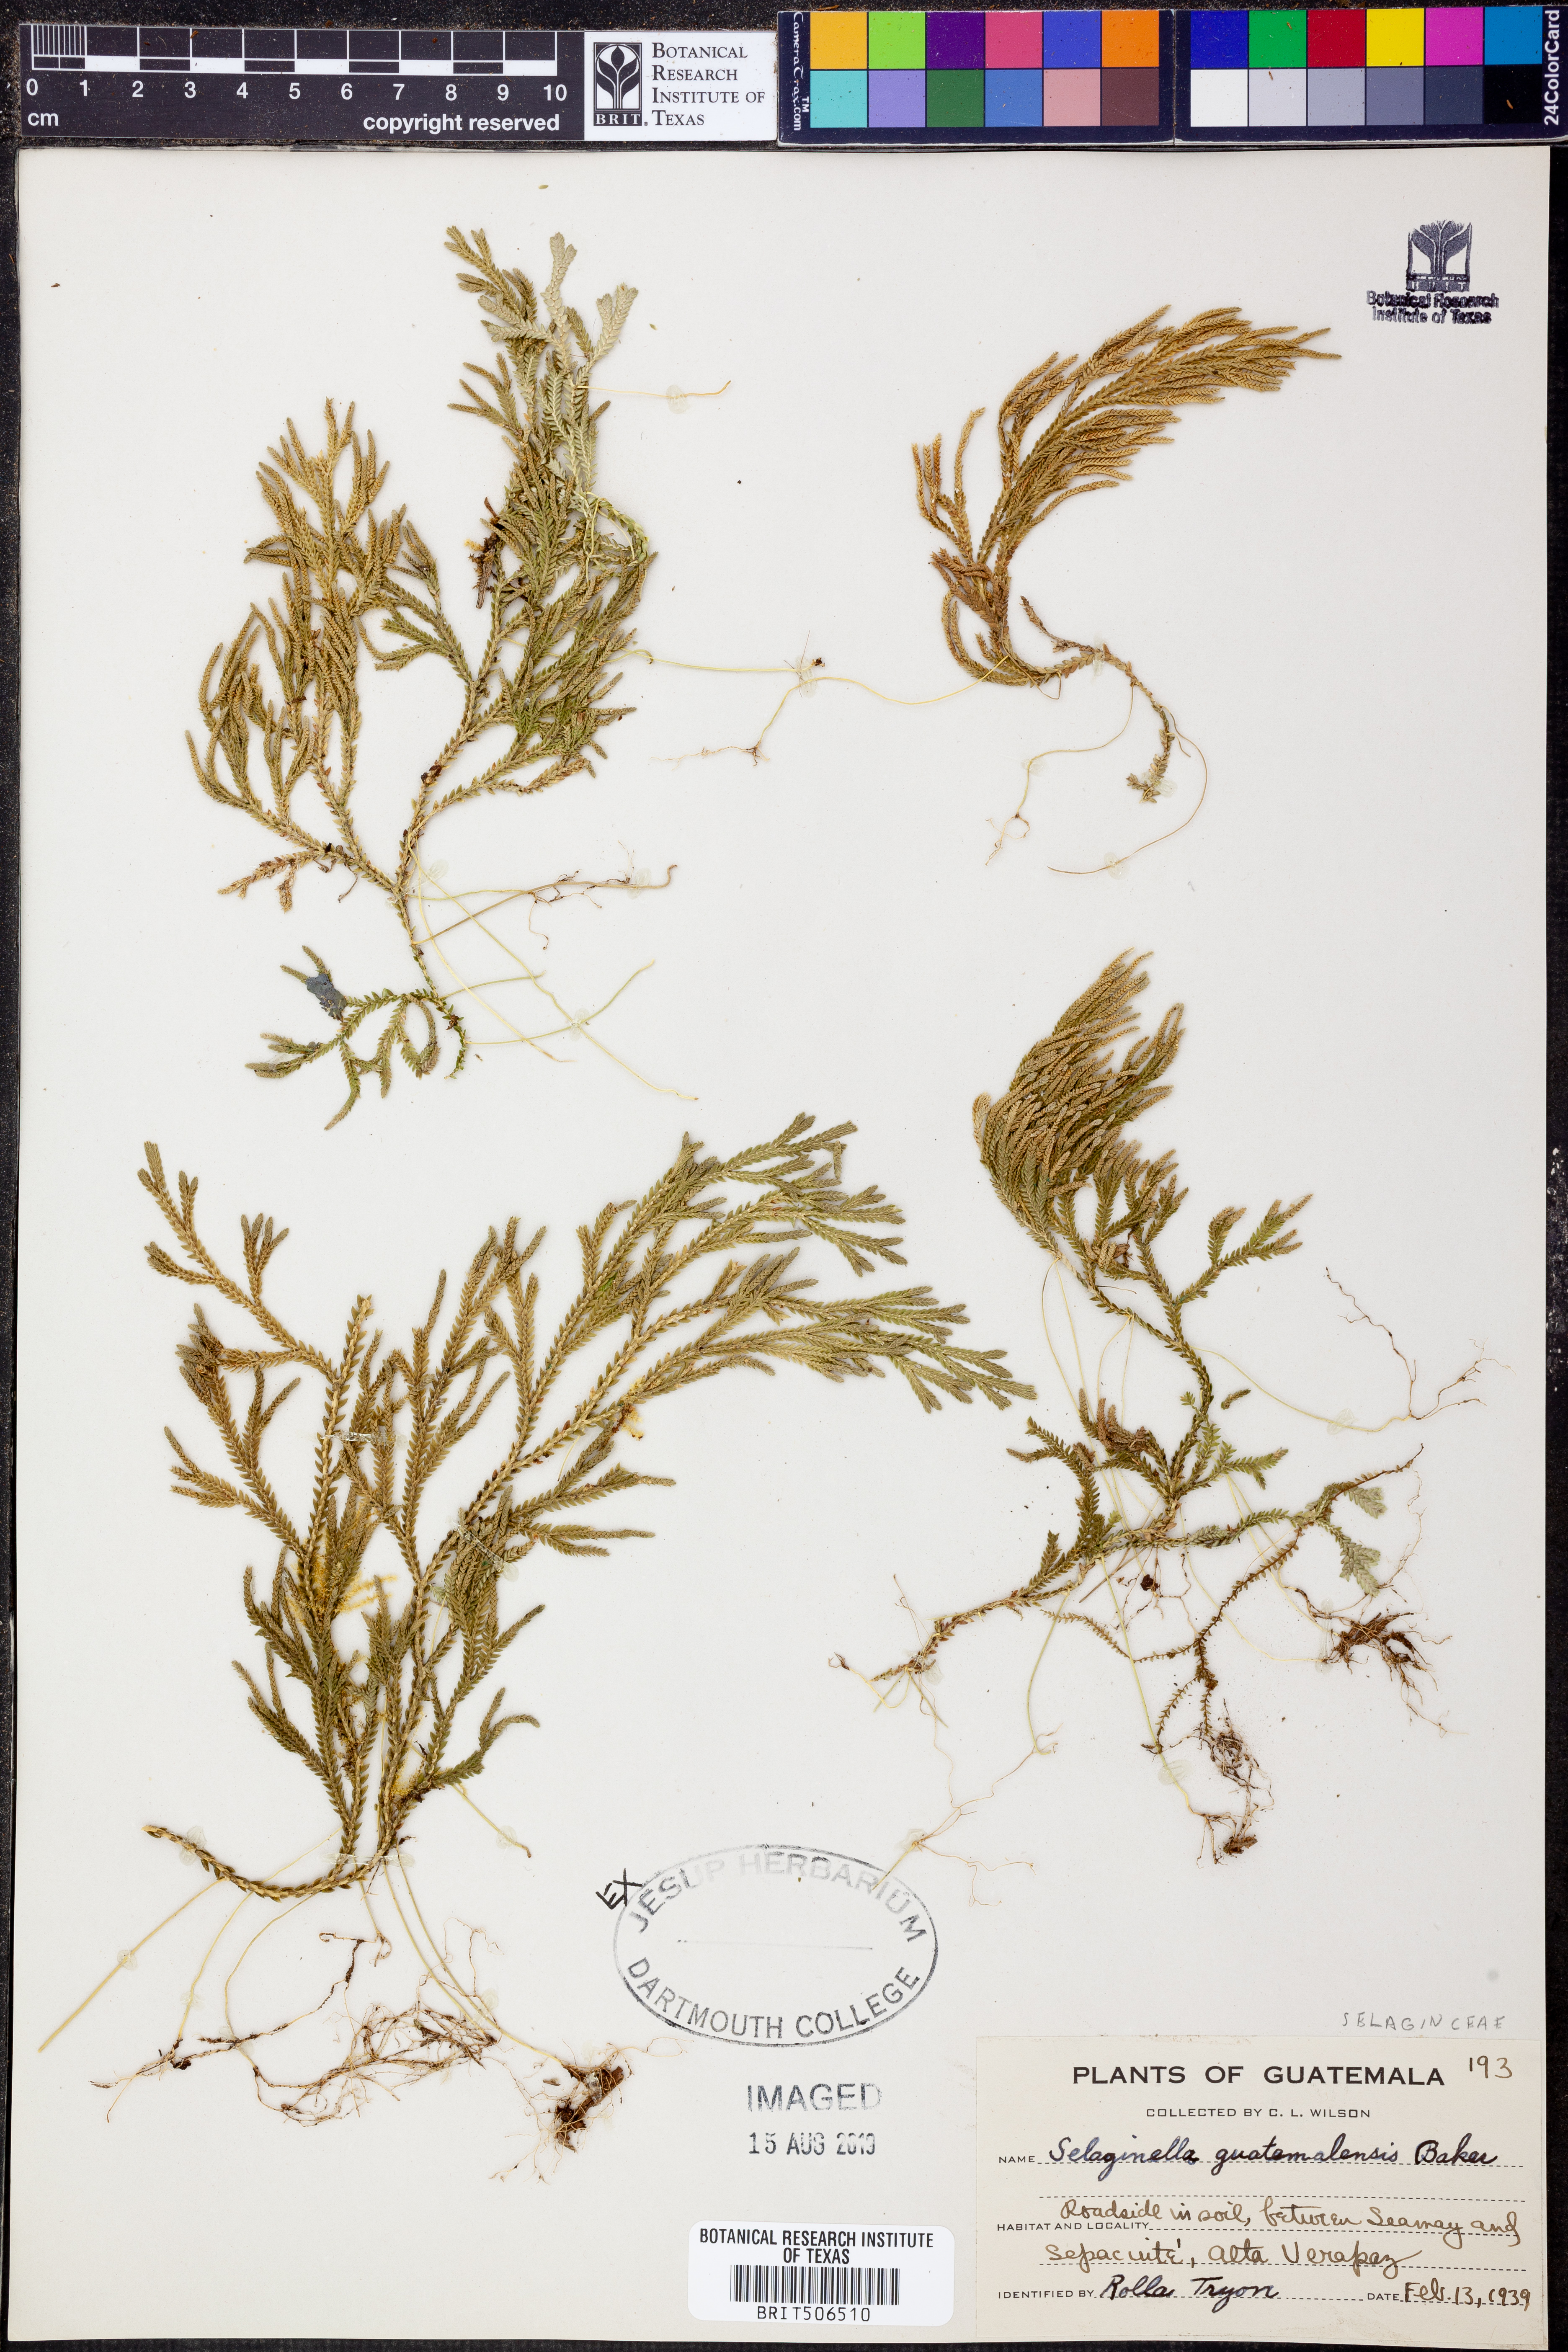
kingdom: Plantae
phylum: Tracheophyta
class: Lycopodiopsida
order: Selaginellales
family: Selaginellaceae
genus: Selaginella
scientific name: Selaginella guatemalensis
